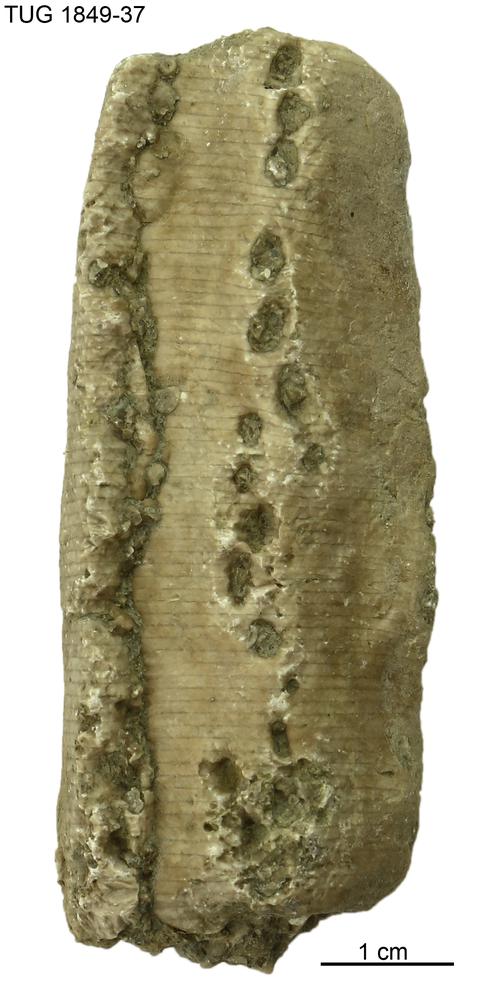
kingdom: Animalia
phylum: Echinodermata
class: Crinoidea
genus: Enallocrinus
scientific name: Enallocrinus
